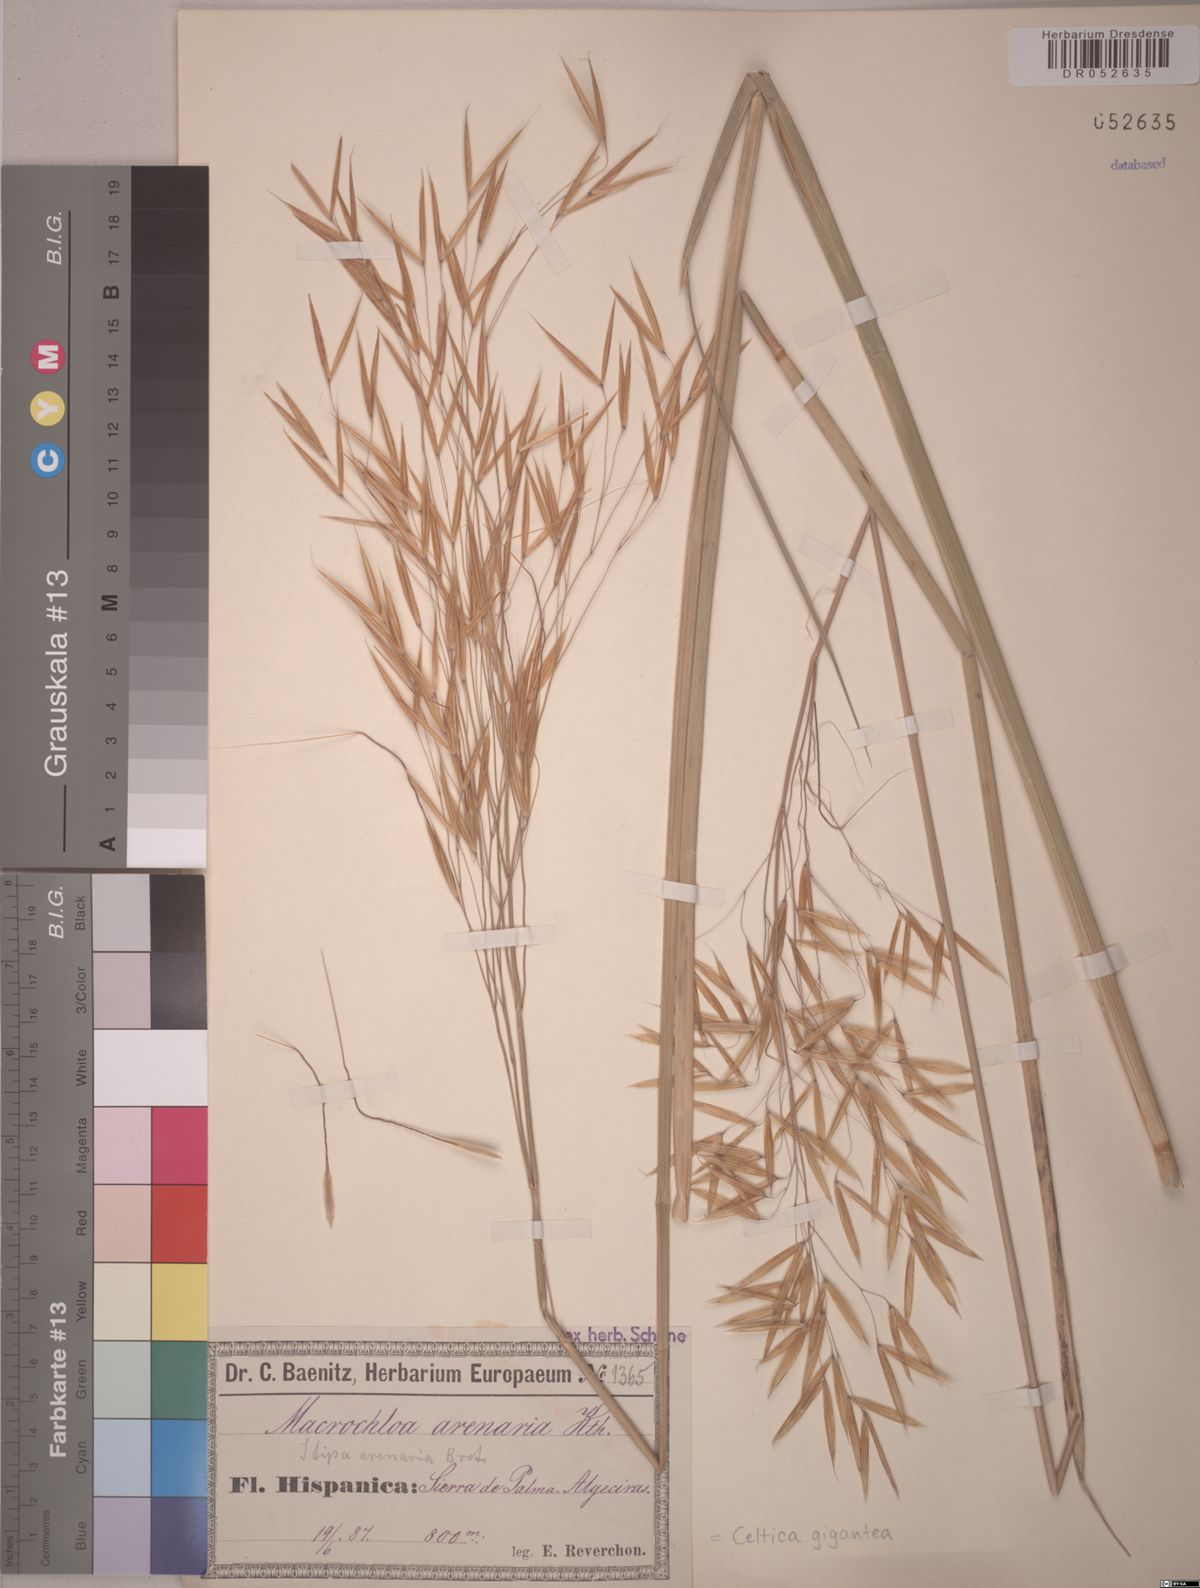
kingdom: Plantae
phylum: Tracheophyta
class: Liliopsida
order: Poales
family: Poaceae
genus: Celtica
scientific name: Celtica gigantea
